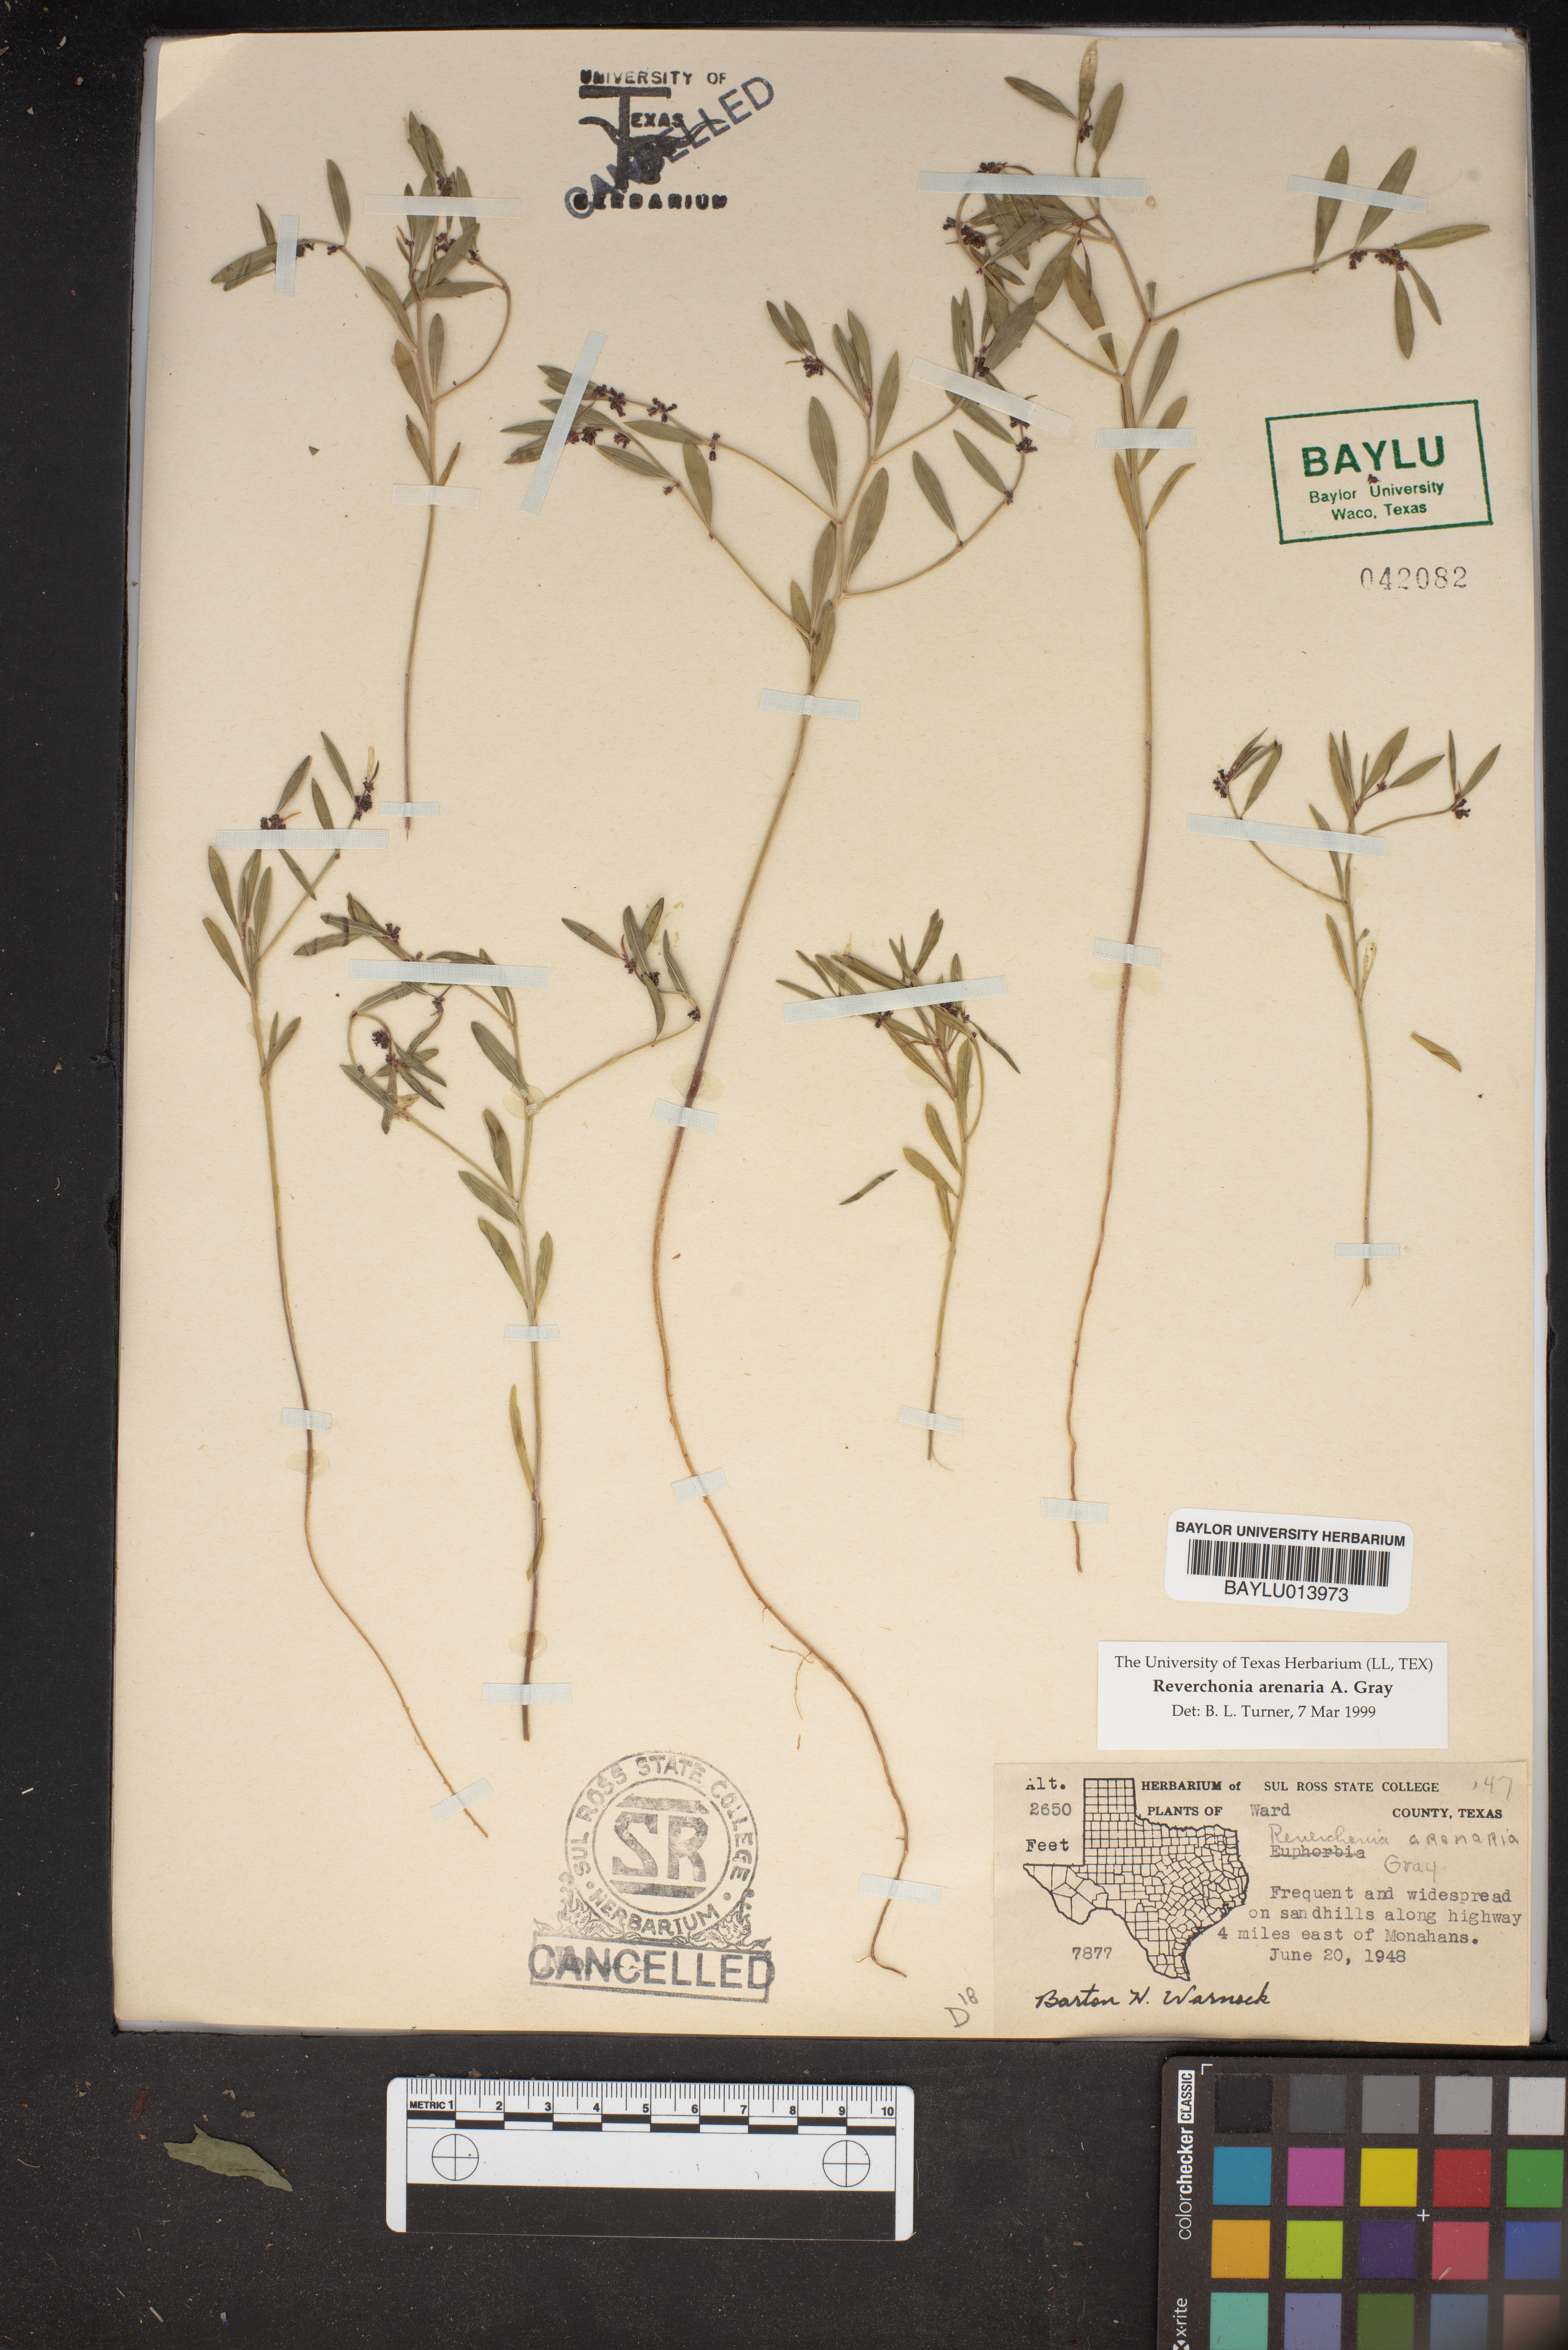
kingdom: Plantae
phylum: Tracheophyta
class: Magnoliopsida
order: Malpighiales
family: Phyllanthaceae
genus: Phyllanthus
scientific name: Phyllanthus warnockii
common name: Sand reverchonia
